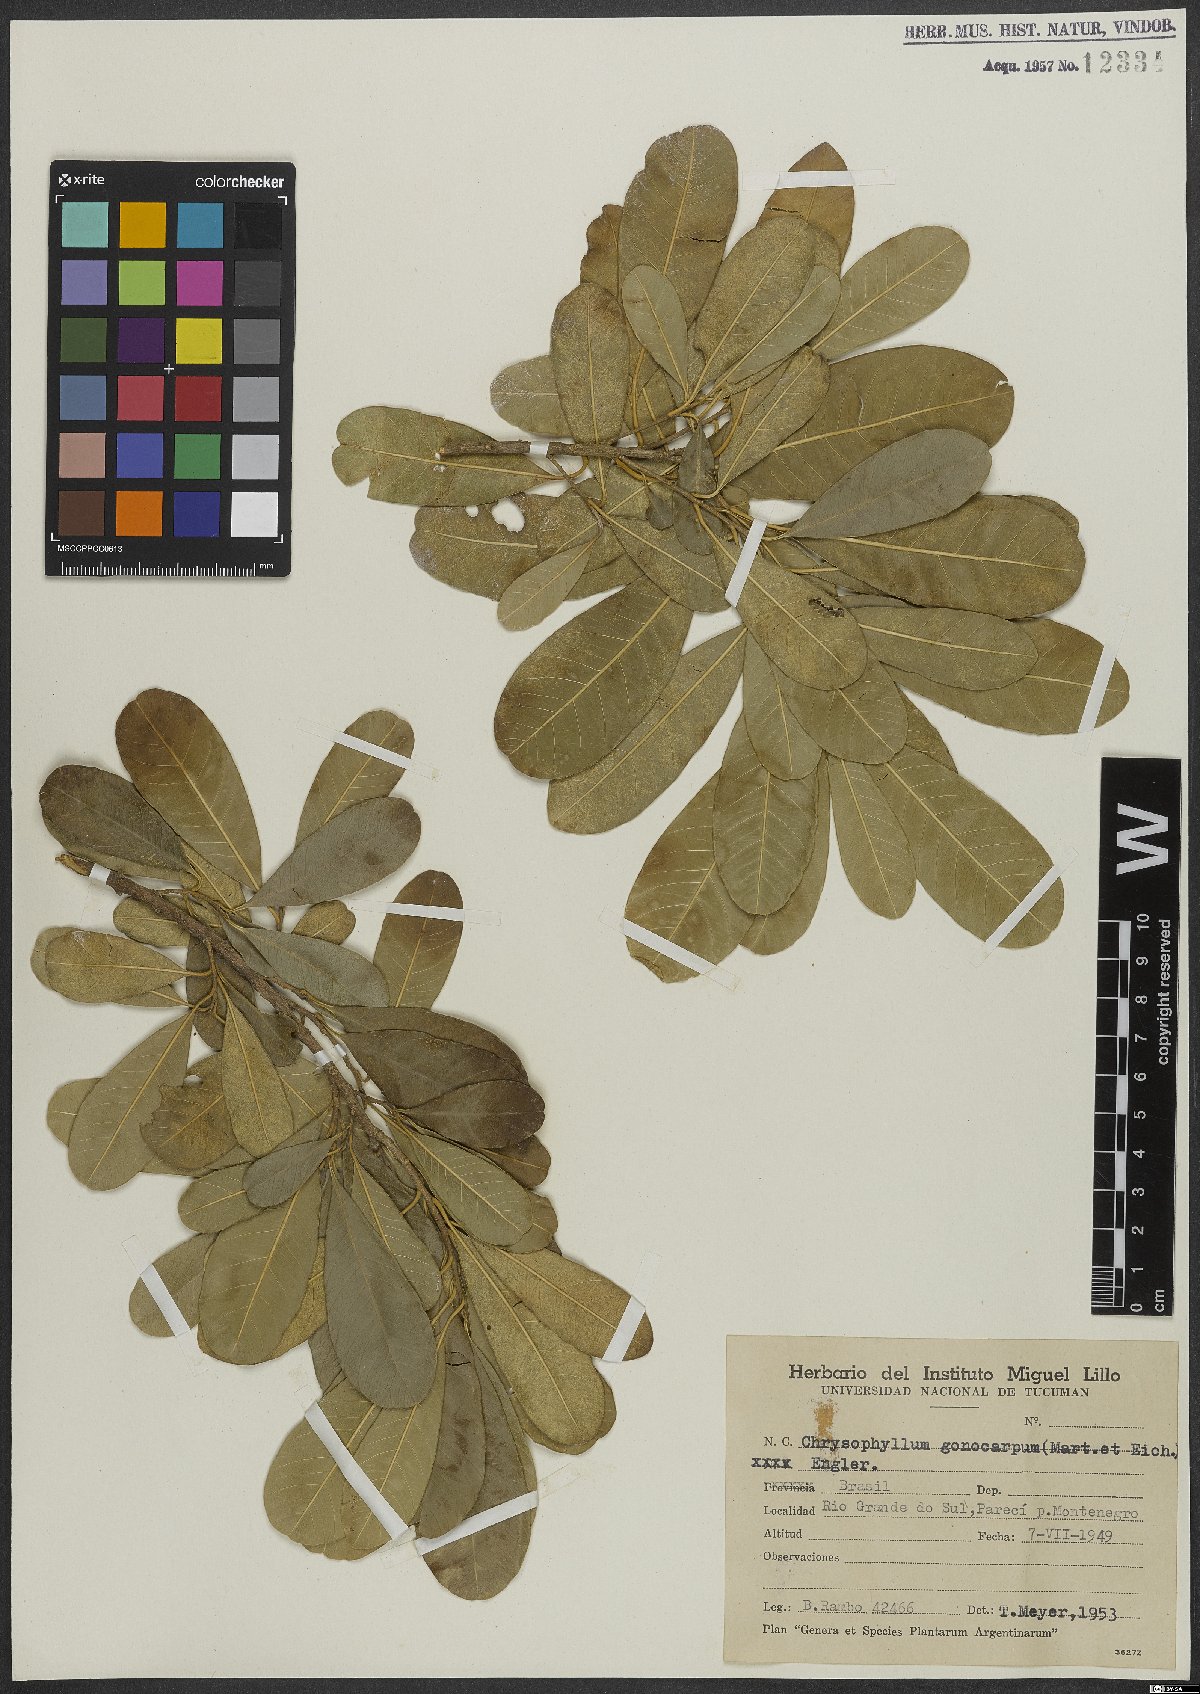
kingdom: Plantae
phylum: Tracheophyta
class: Magnoliopsida
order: Ericales
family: Sapotaceae
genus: Chrysophyllum
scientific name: Chrysophyllum gonocarpum
